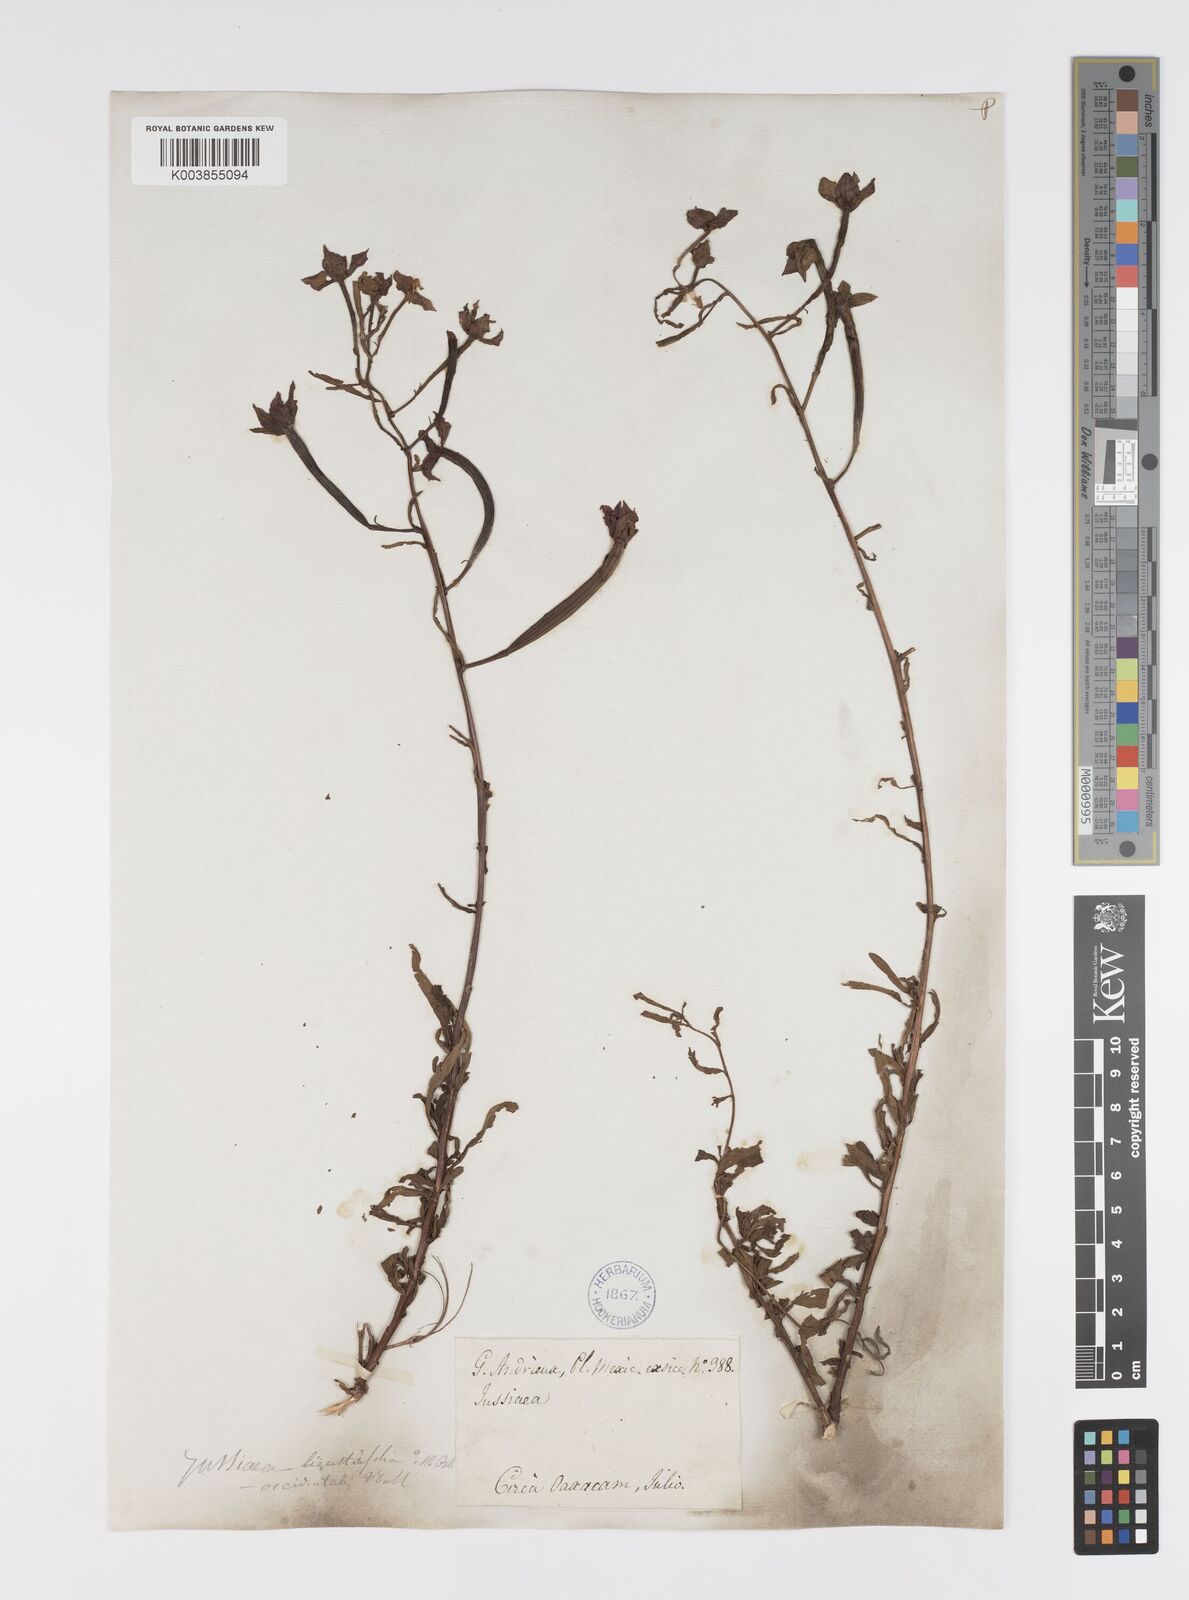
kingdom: Plantae
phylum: Tracheophyta
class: Magnoliopsida
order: Myrtales
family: Onagraceae
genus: Ludwigia
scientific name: Ludwigia octovalvis
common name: Water-primrose
